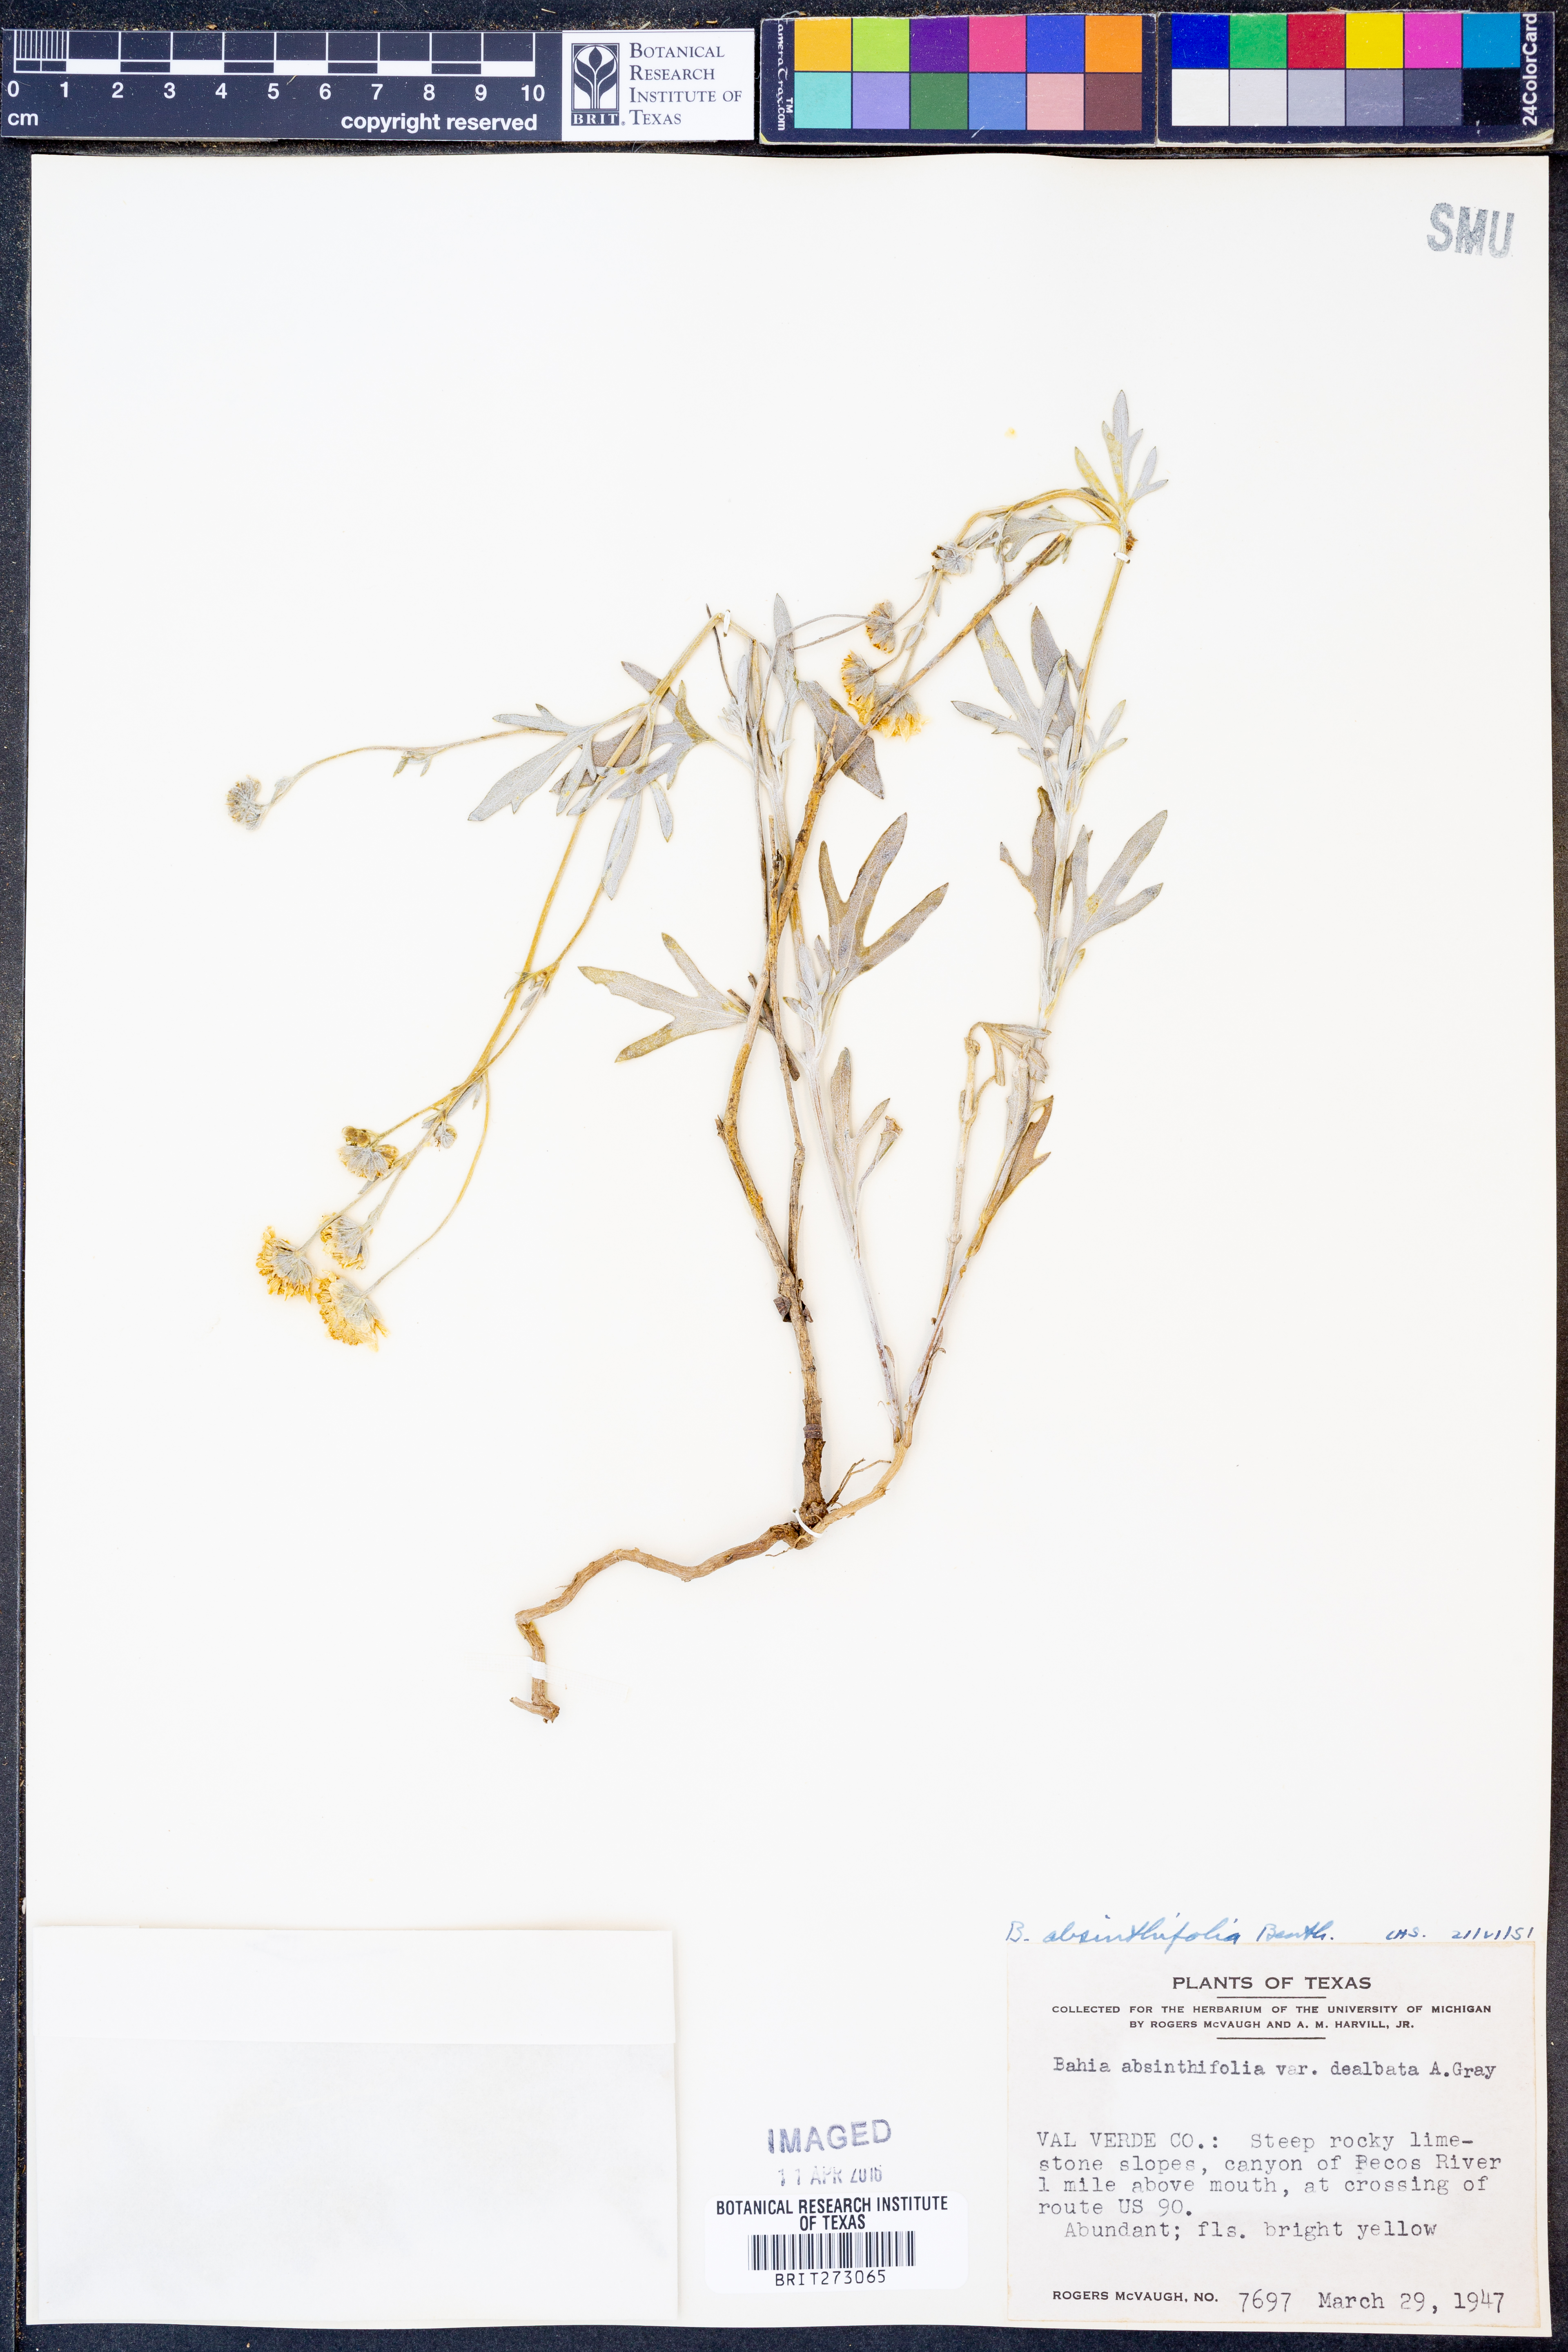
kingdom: Plantae
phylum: Tracheophyta
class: Magnoliopsida
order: Asterales
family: Asteraceae
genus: Picradeniopsis
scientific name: Picradeniopsis absinthifolia
